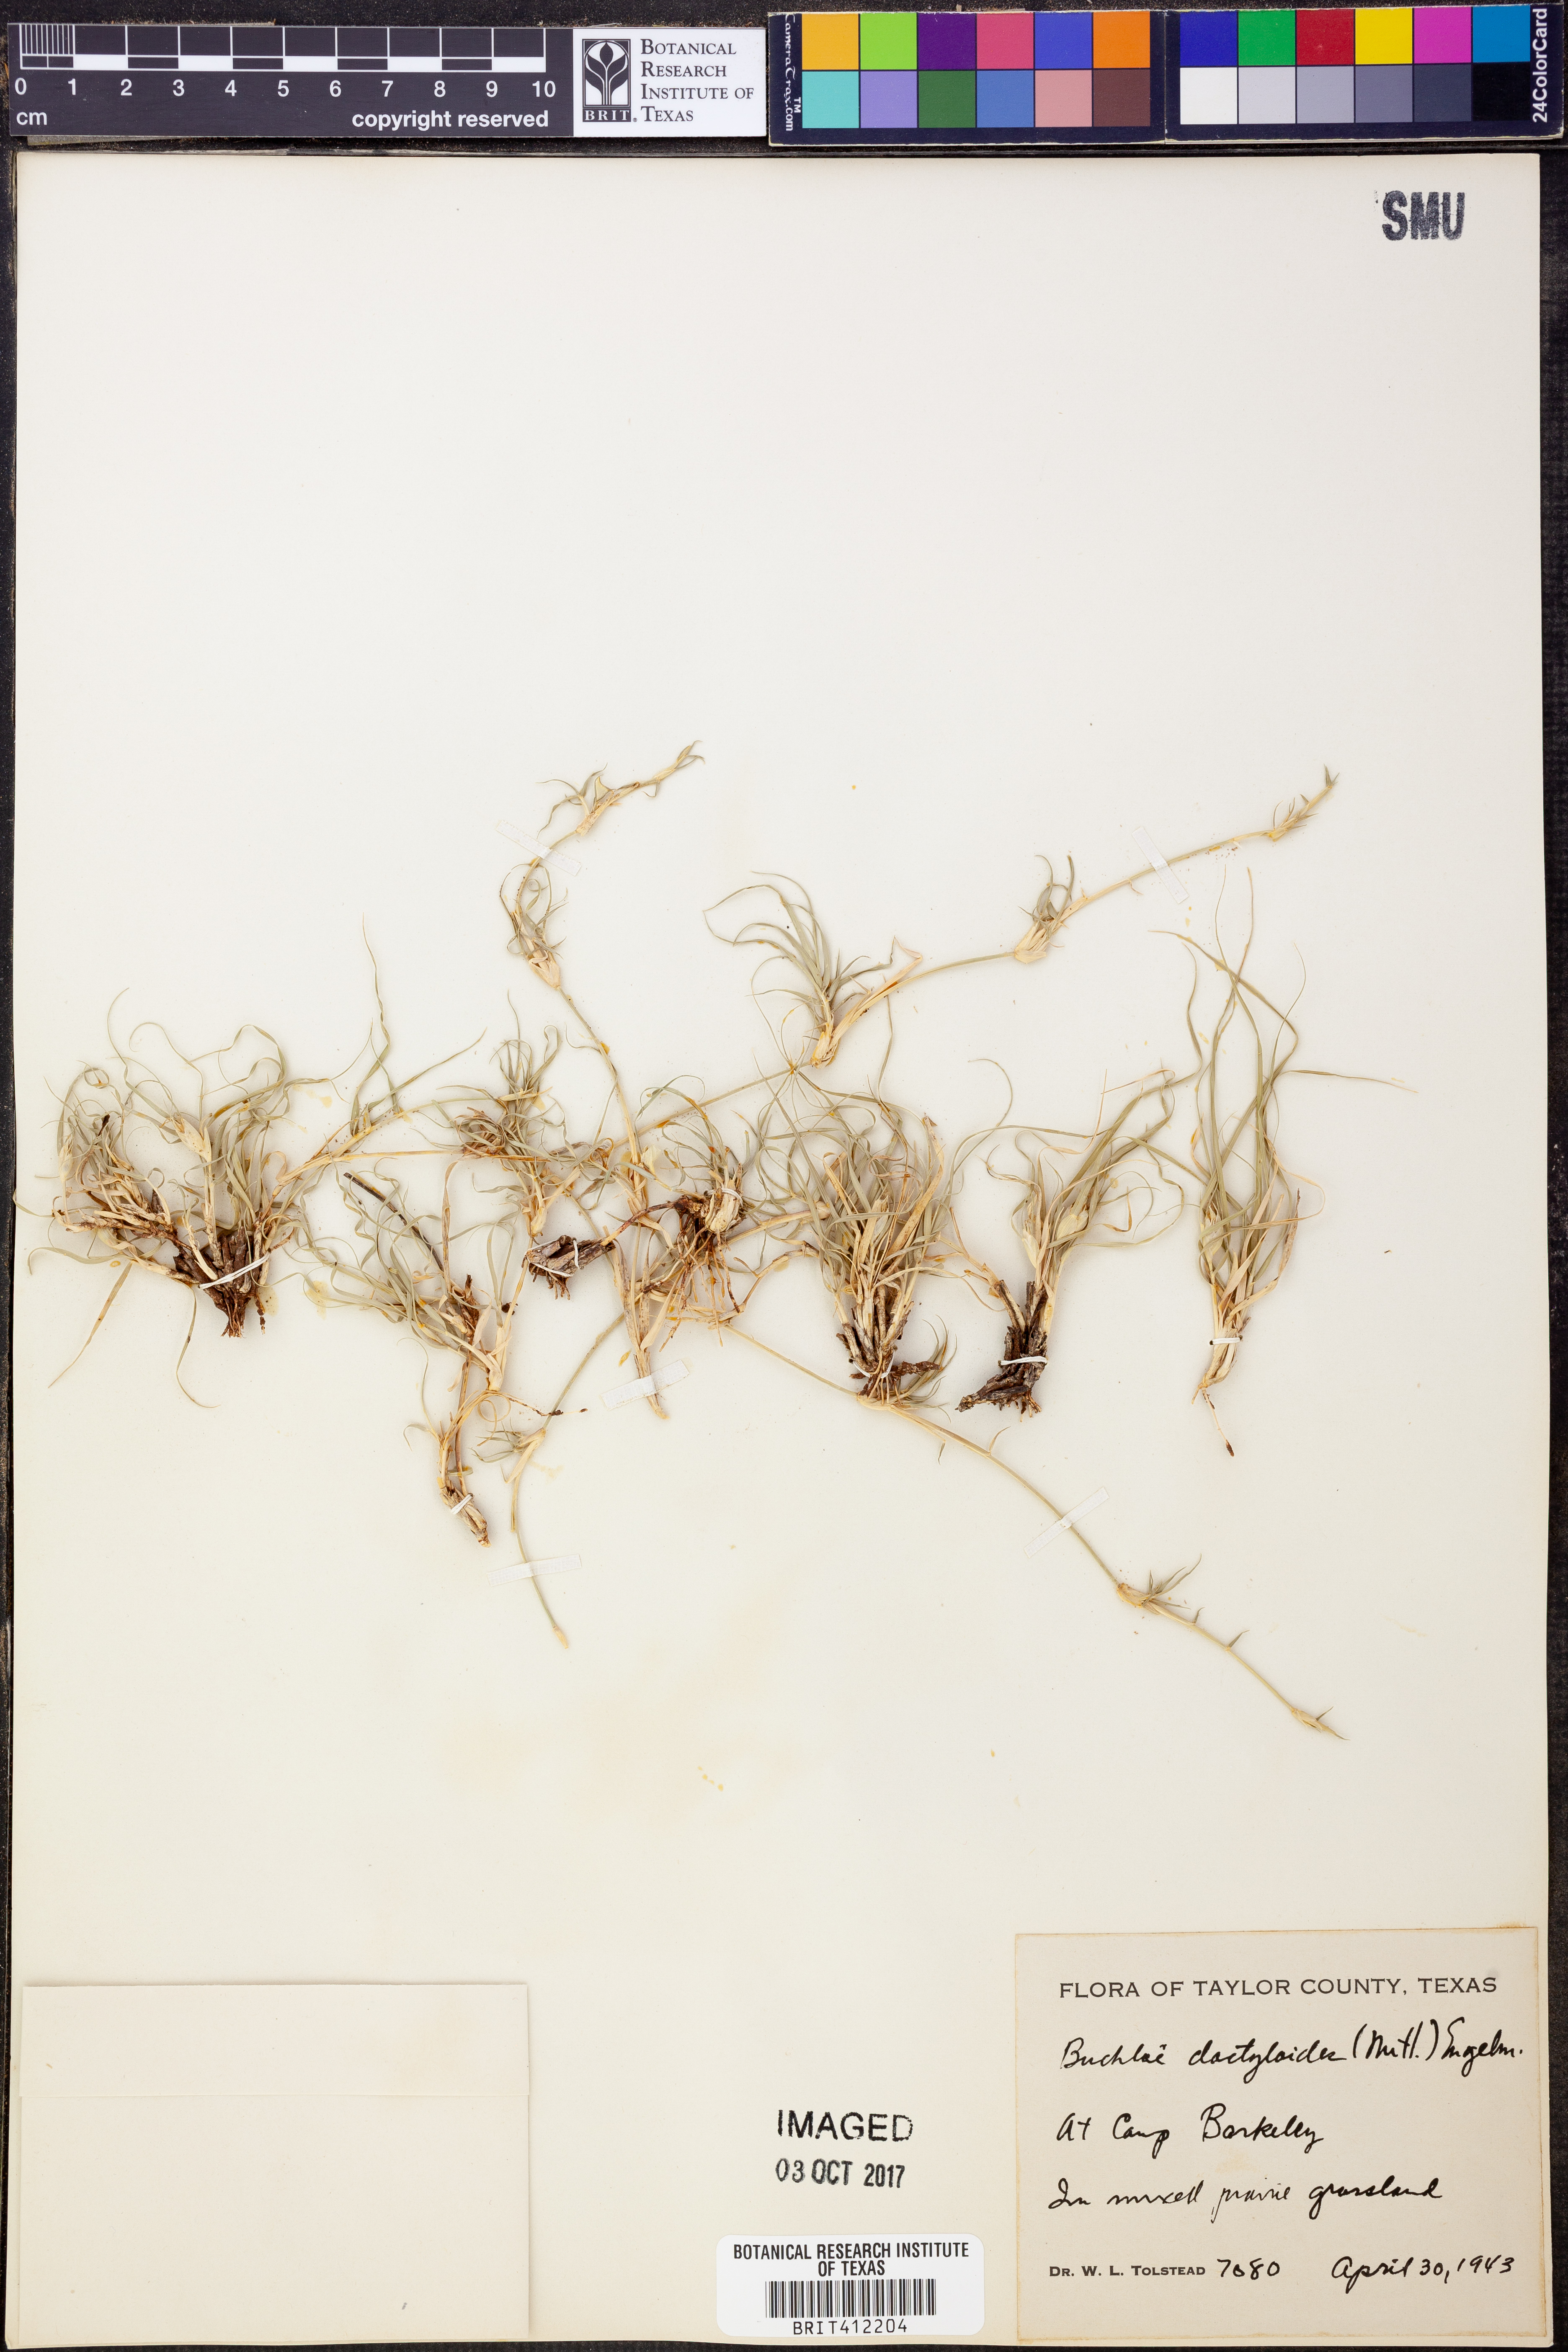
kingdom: Plantae
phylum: Tracheophyta
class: Liliopsida
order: Poales
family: Poaceae
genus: Bouteloua
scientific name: Bouteloua dactyloides
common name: Buffalo grass
